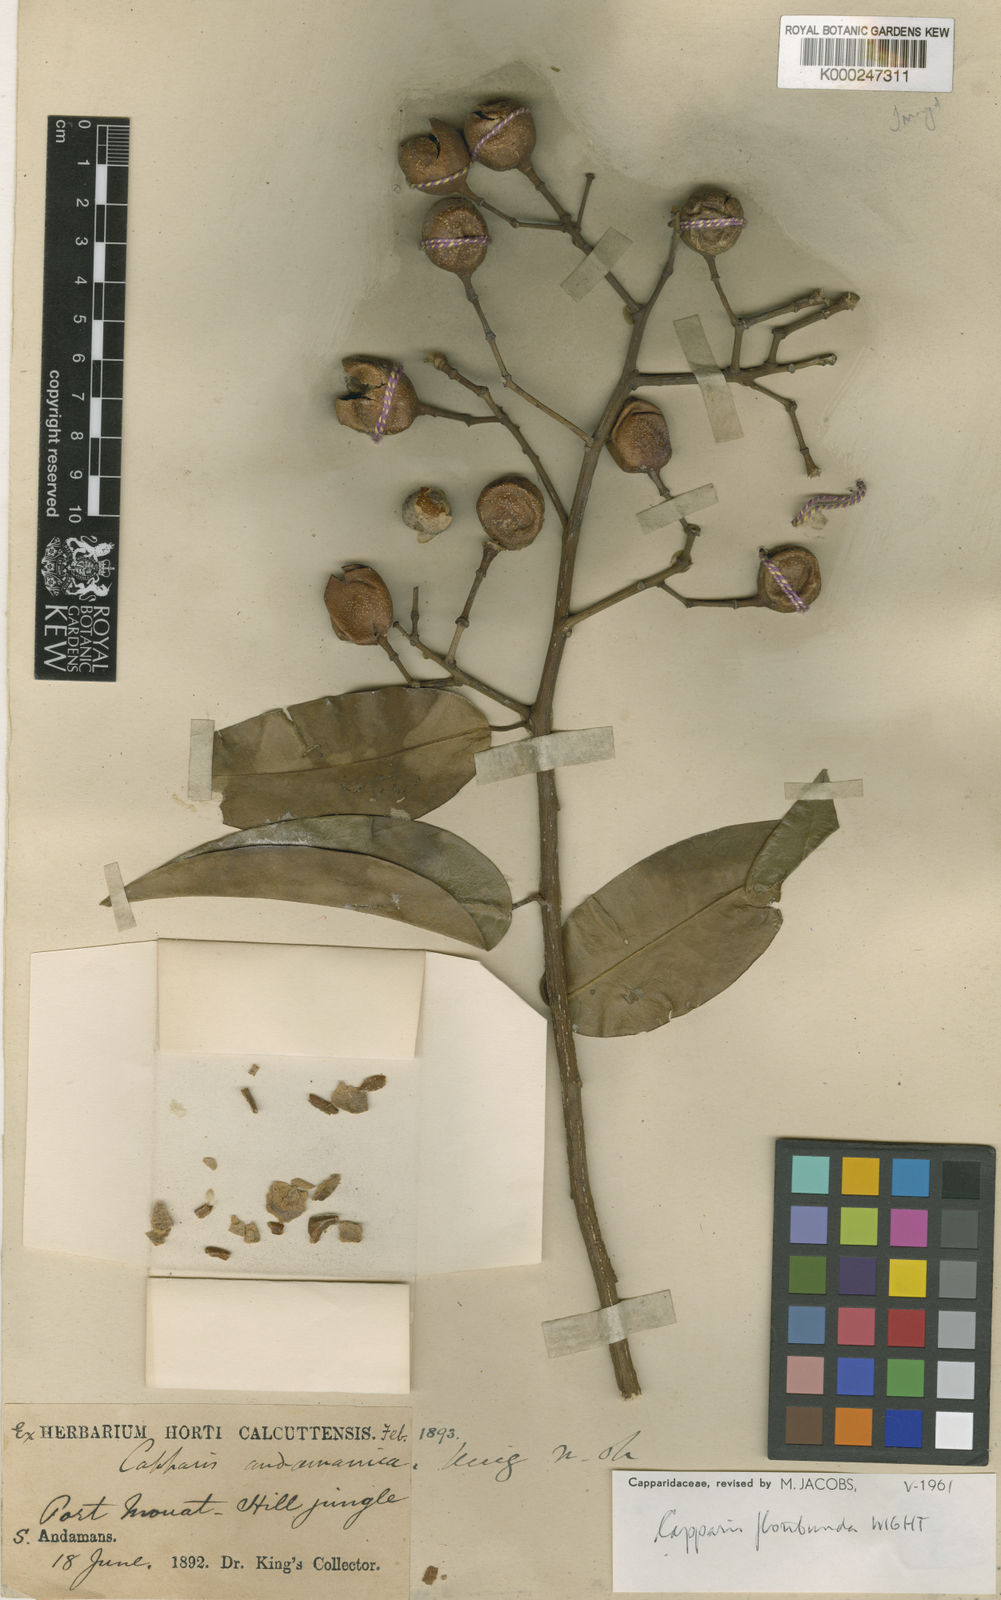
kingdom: Plantae
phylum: Tracheophyta
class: Magnoliopsida
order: Brassicales
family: Capparaceae
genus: Capparis
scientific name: Capparis floribunda
